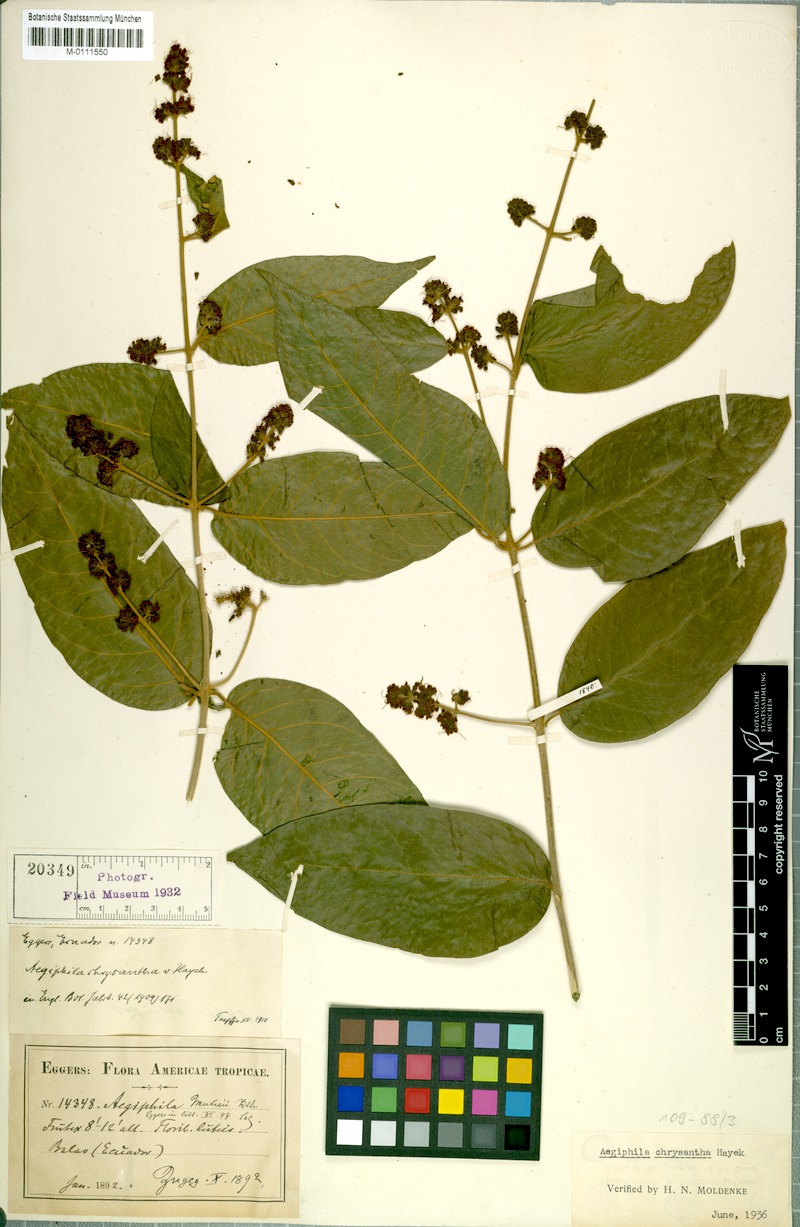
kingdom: Plantae
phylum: Tracheophyta
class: Magnoliopsida
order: Lamiales
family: Lamiaceae
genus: Aegiphila
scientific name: Aegiphila vitelliniflora
